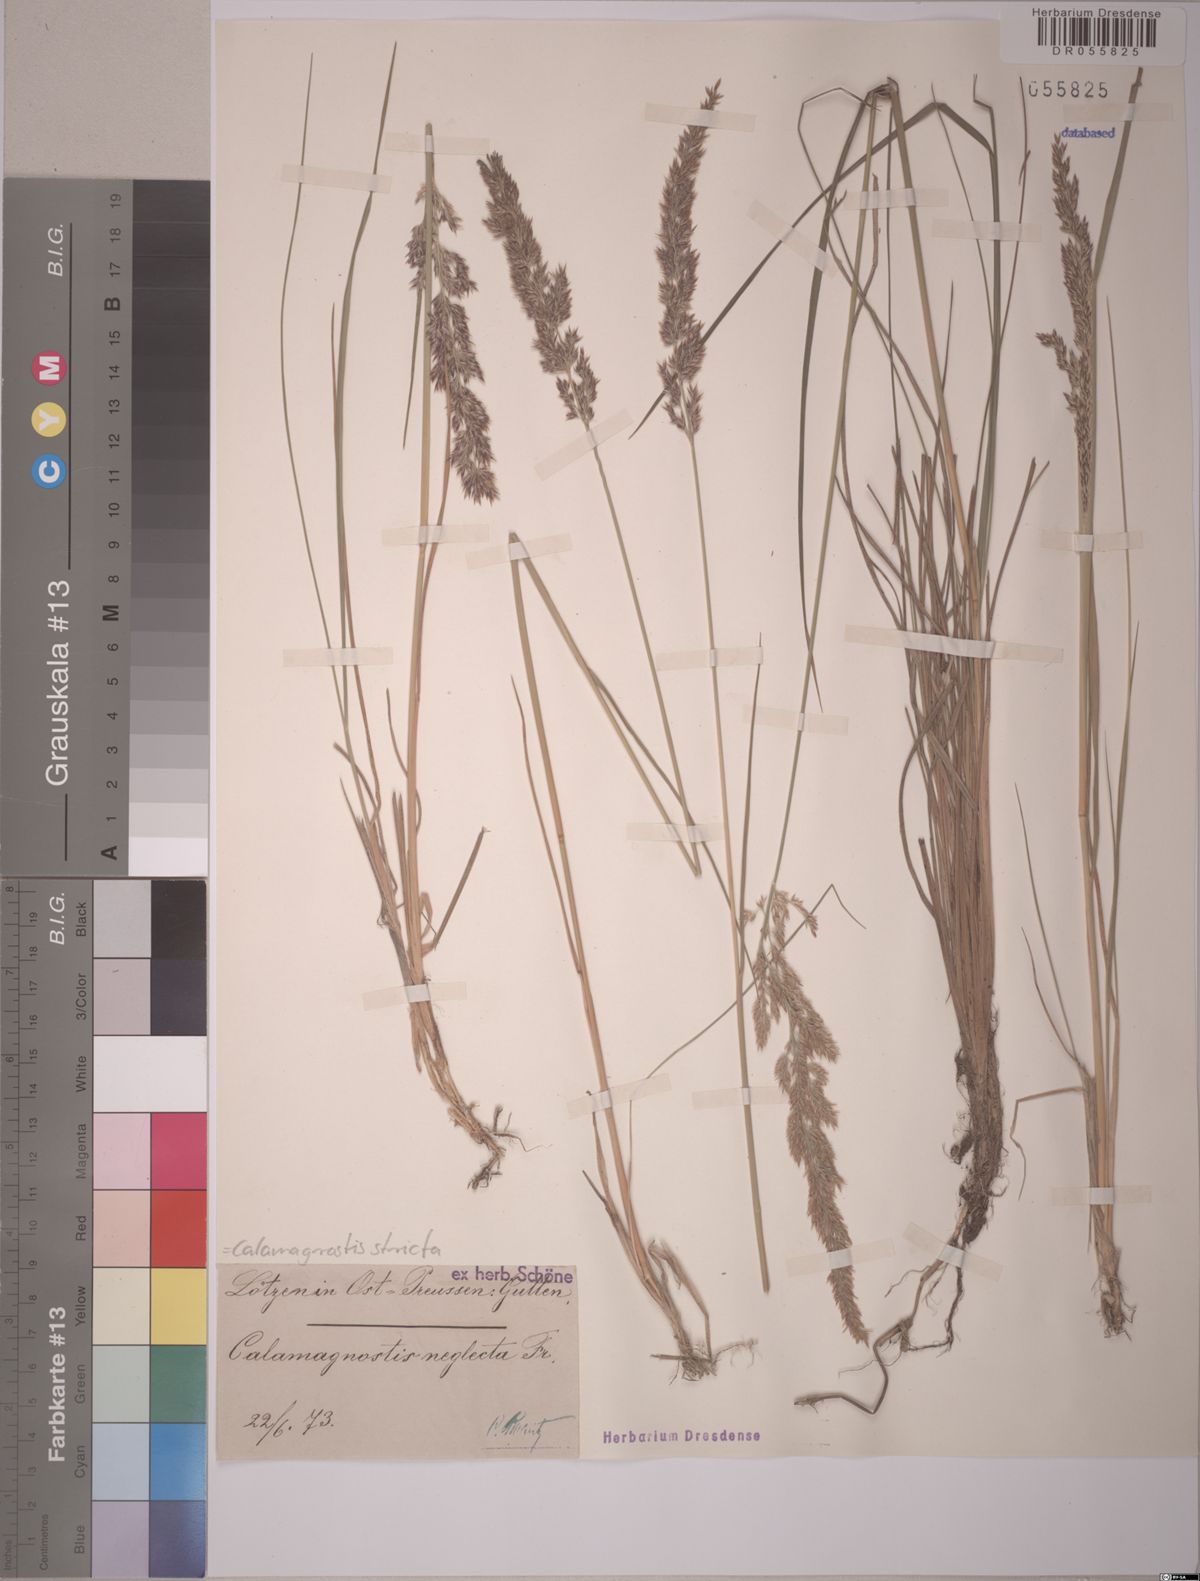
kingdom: Plantae
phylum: Tracheophyta
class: Liliopsida
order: Poales
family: Poaceae
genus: Calamagrostis
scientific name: Calamagrostis stricta
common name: Narrow small-reed
